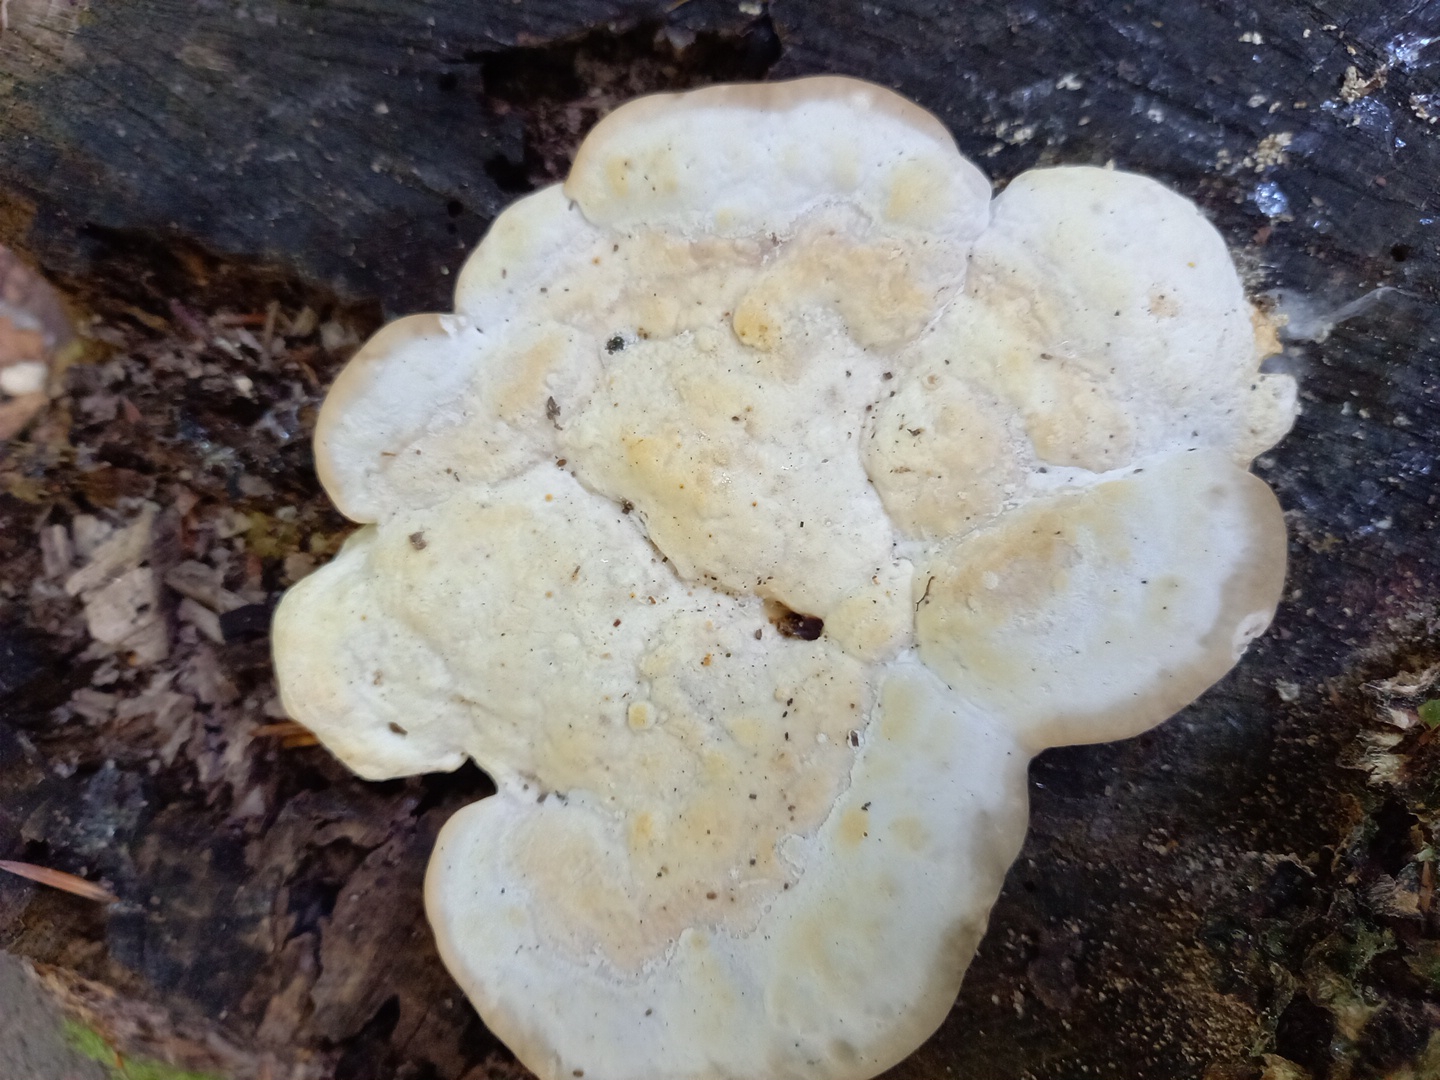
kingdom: Fungi
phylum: Basidiomycota
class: Agaricomycetes
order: Polyporales
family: Polyporaceae
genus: Trametes
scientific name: Trametes gibbosa
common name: puklet læderporesvamp
